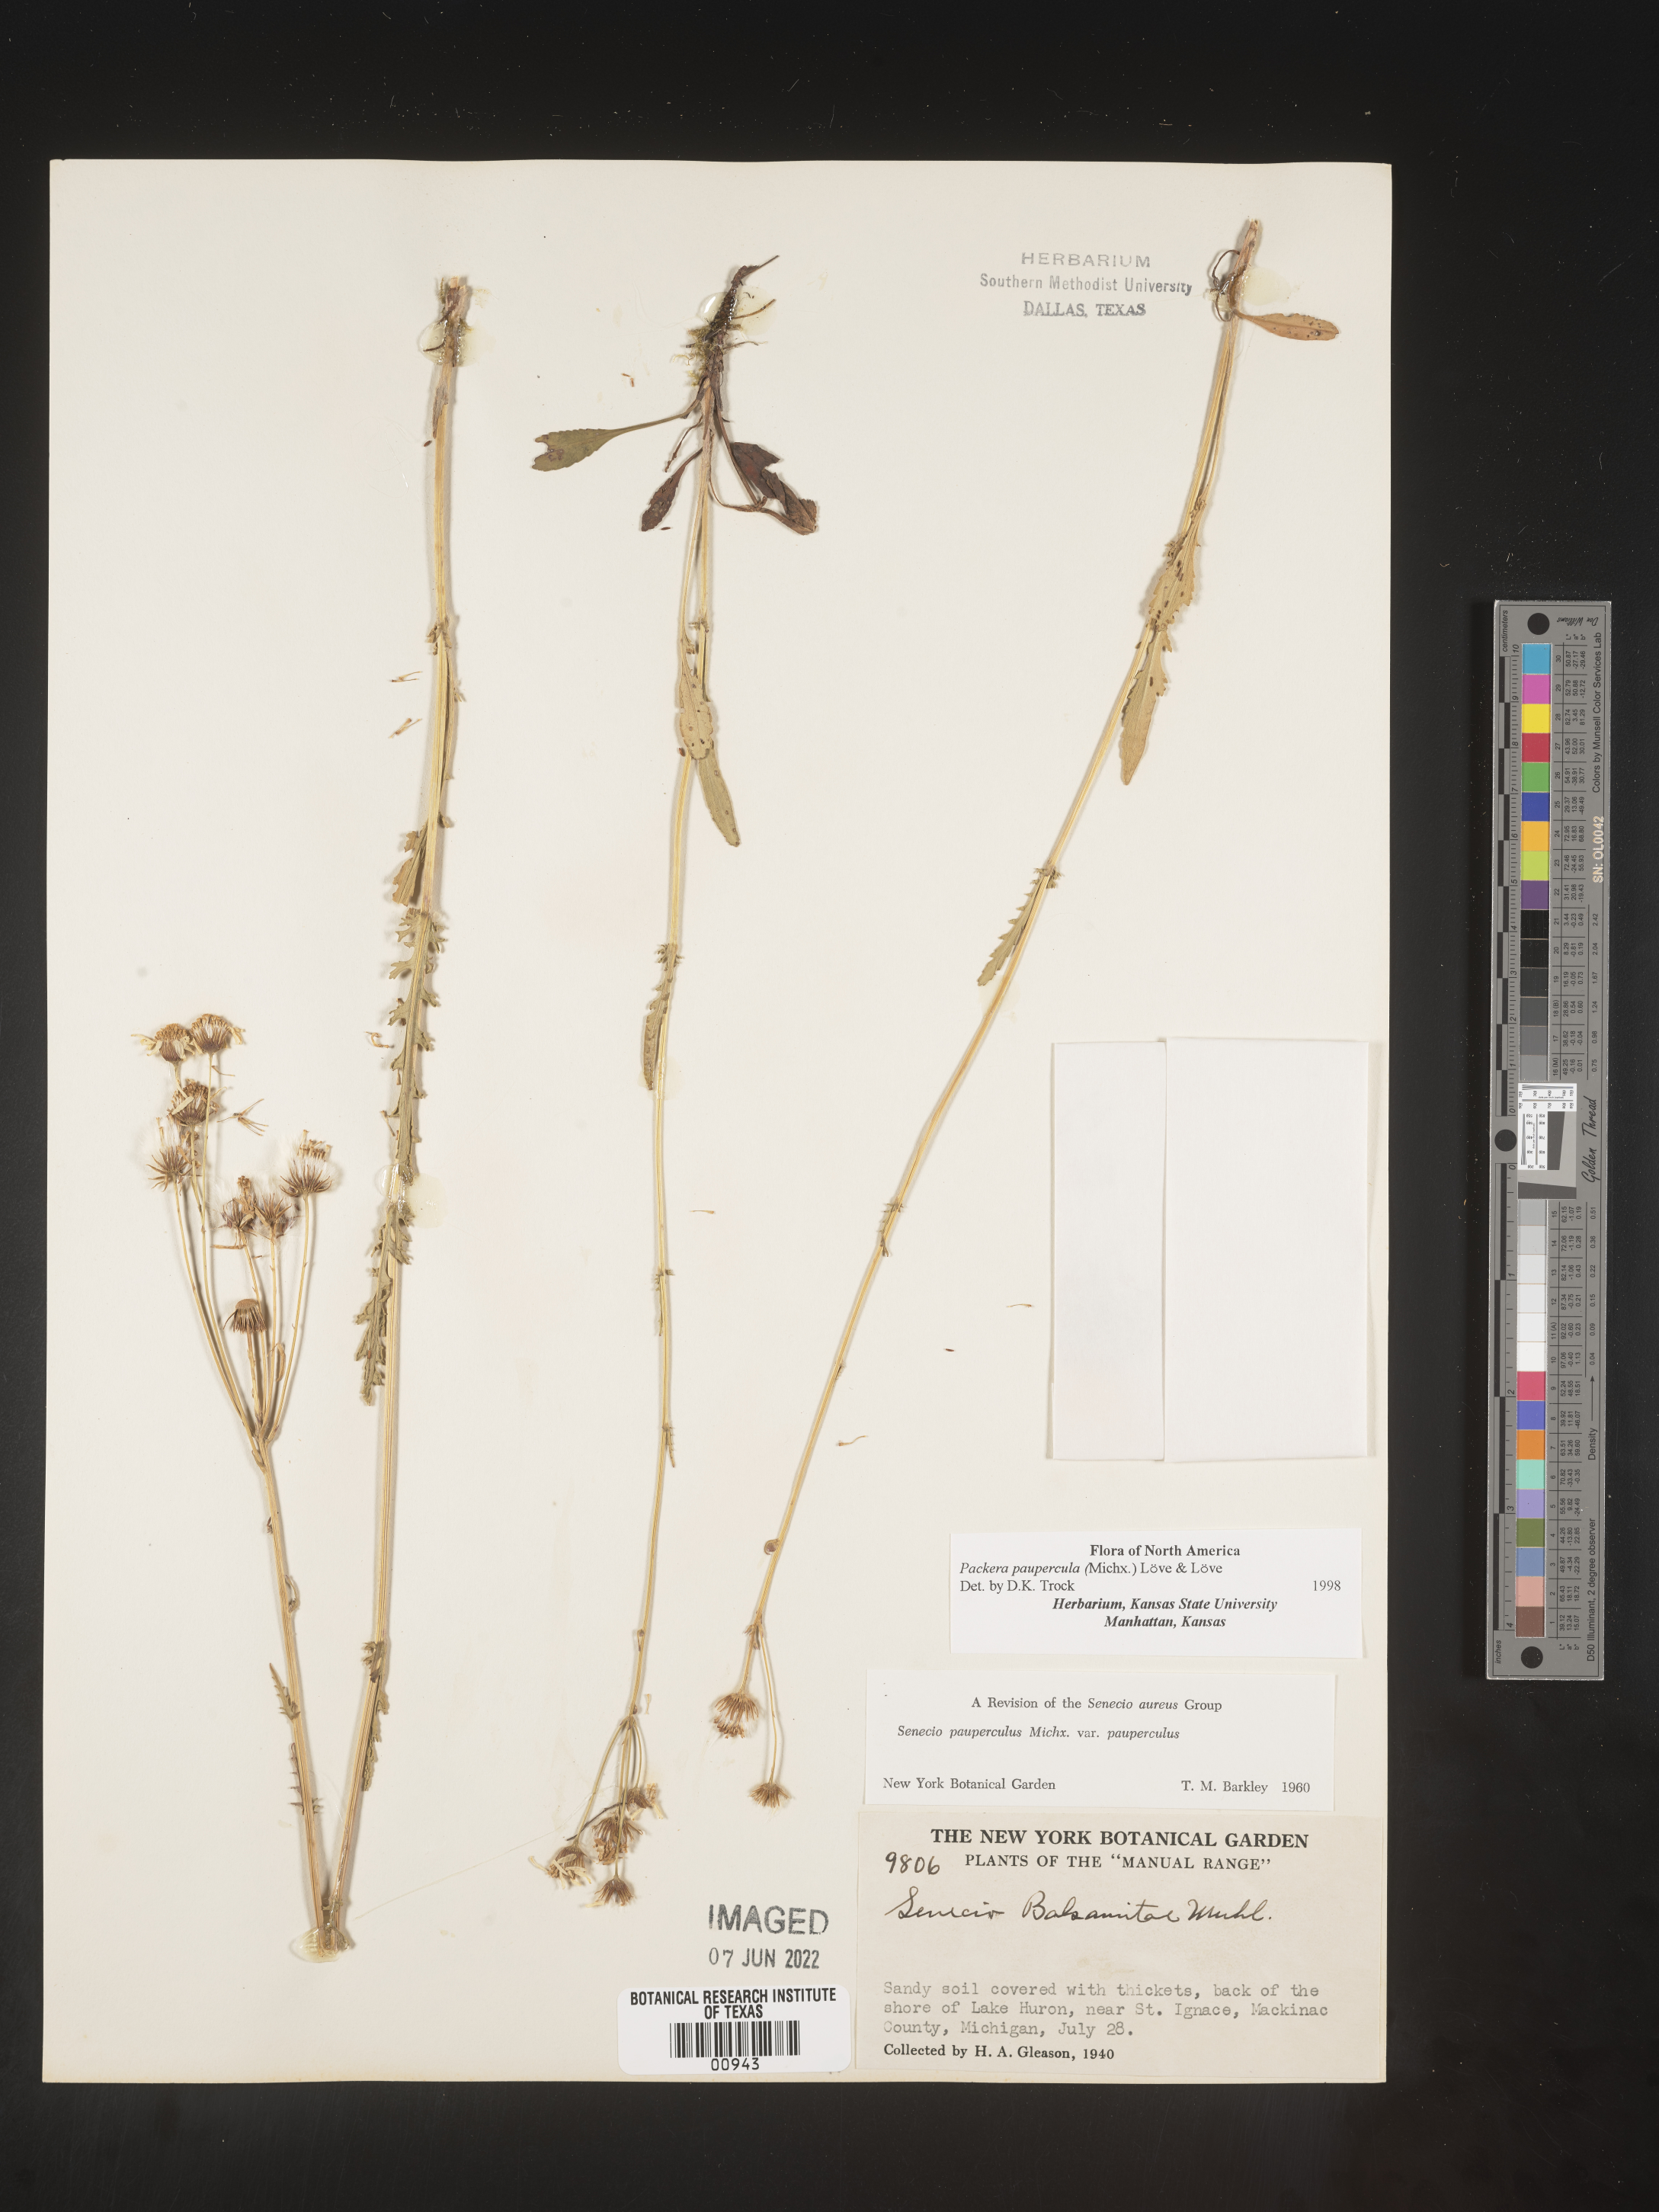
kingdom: Plantae
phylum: Tracheophyta
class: Magnoliopsida
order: Asterales
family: Asteraceae
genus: Packera
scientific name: Packera paupercula
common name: Balsam groundsel
